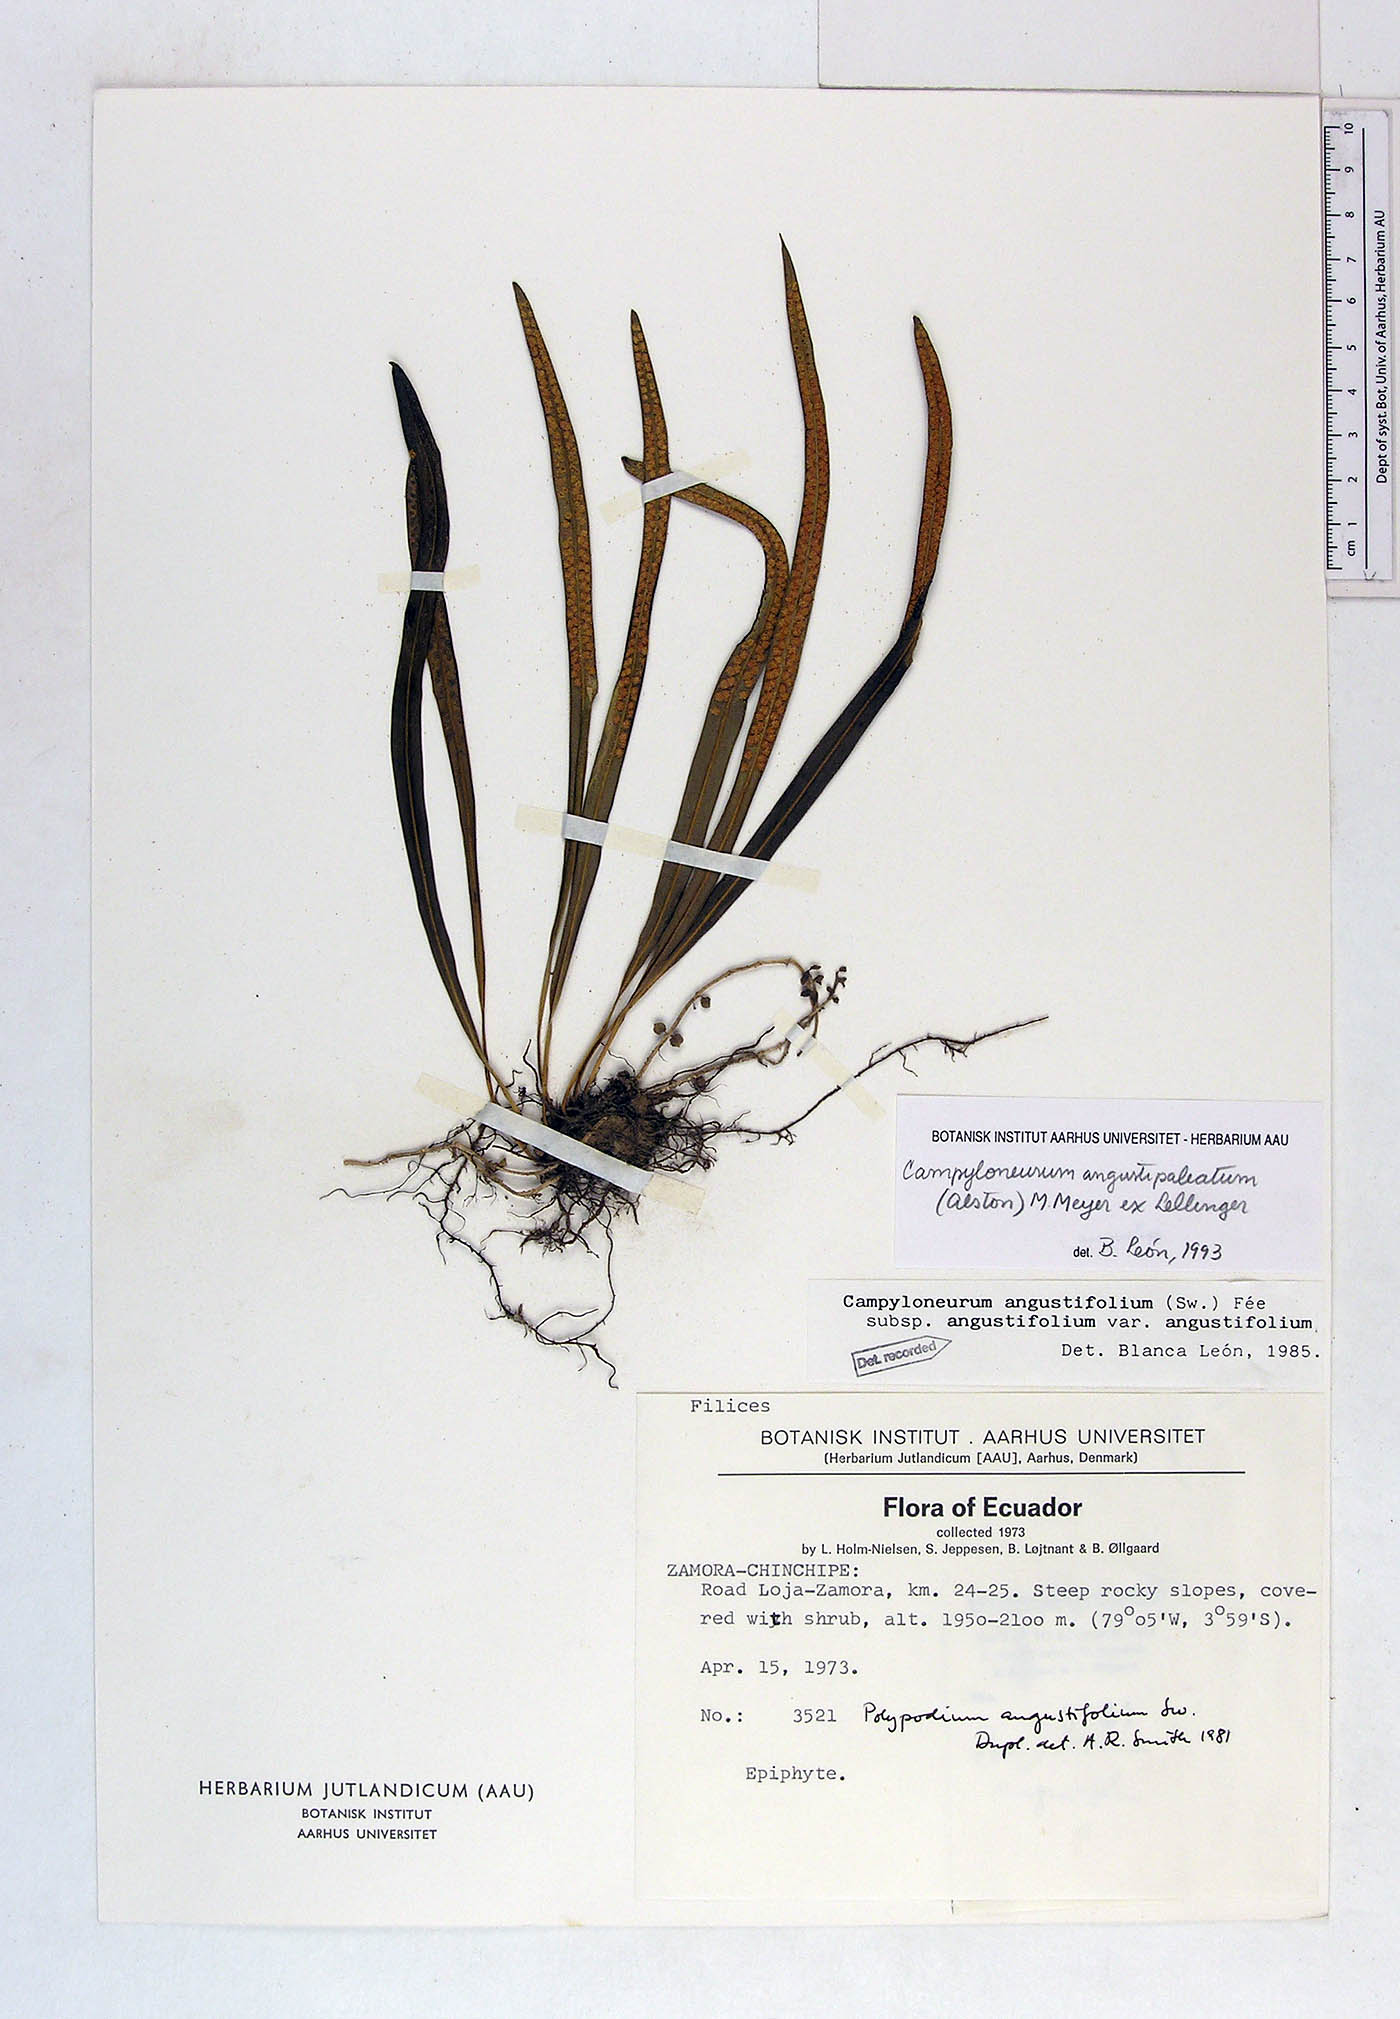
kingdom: Plantae
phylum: Tracheophyta
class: Polypodiopsida
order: Polypodiales
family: Polypodiaceae
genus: Campyloneurum
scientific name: Campyloneurum angustifolium
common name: Narrow-leaf strap fern
